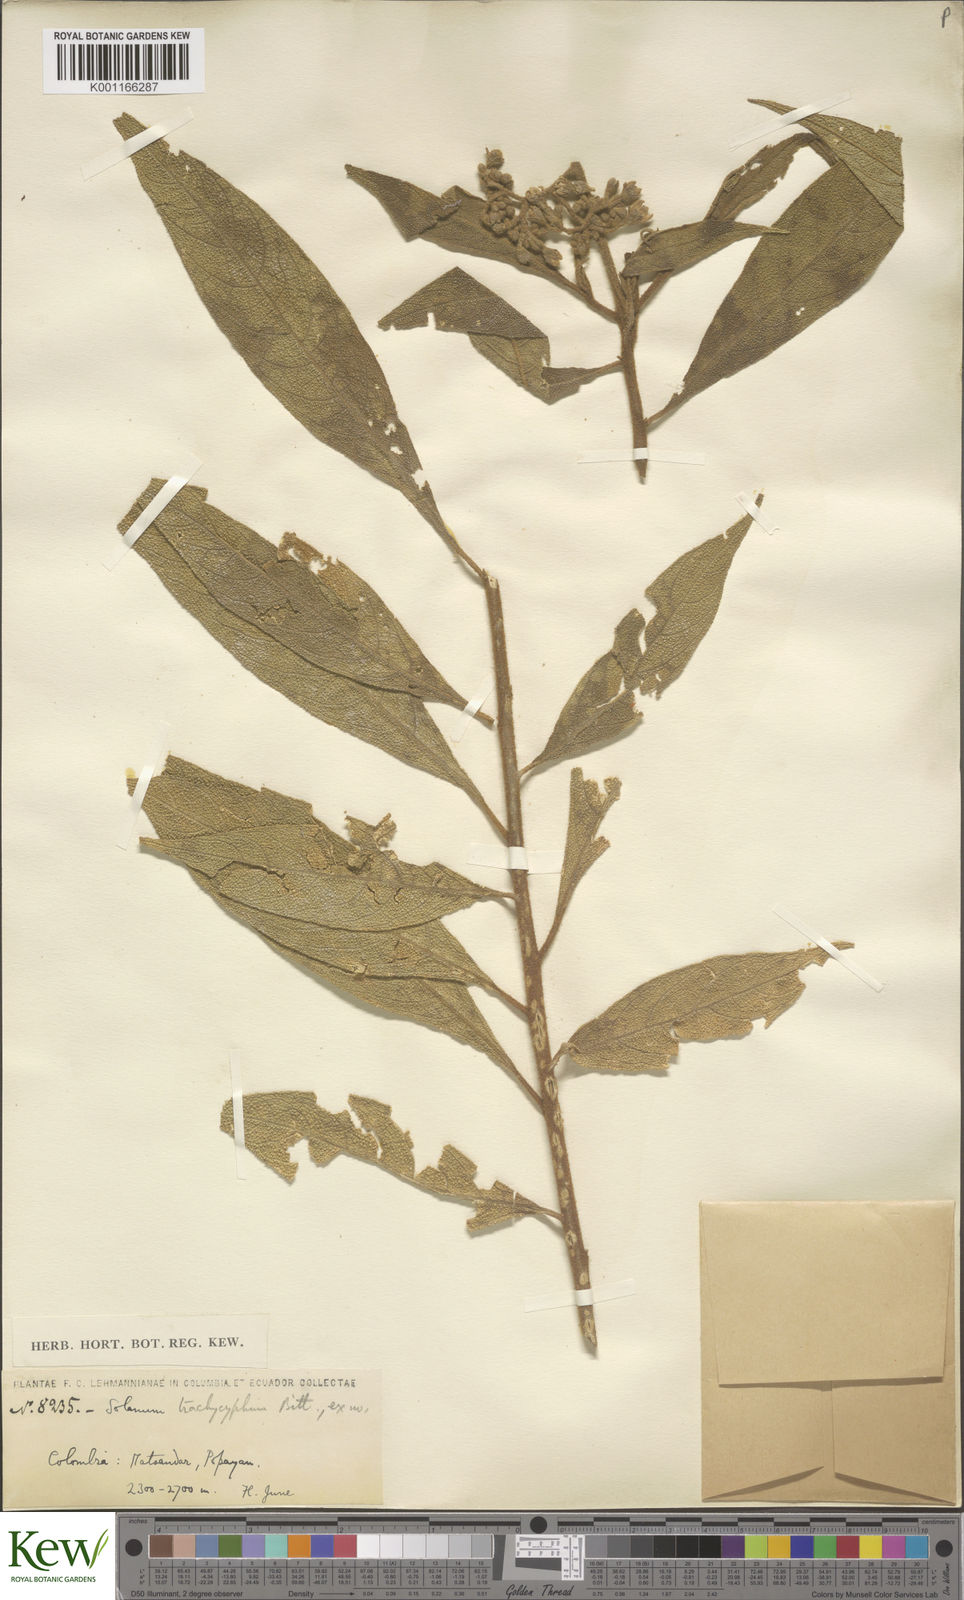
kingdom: Plantae
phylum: Tracheophyta
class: Magnoliopsida
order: Solanales
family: Solanaceae
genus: Solanum
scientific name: Solanum trachycyphum
